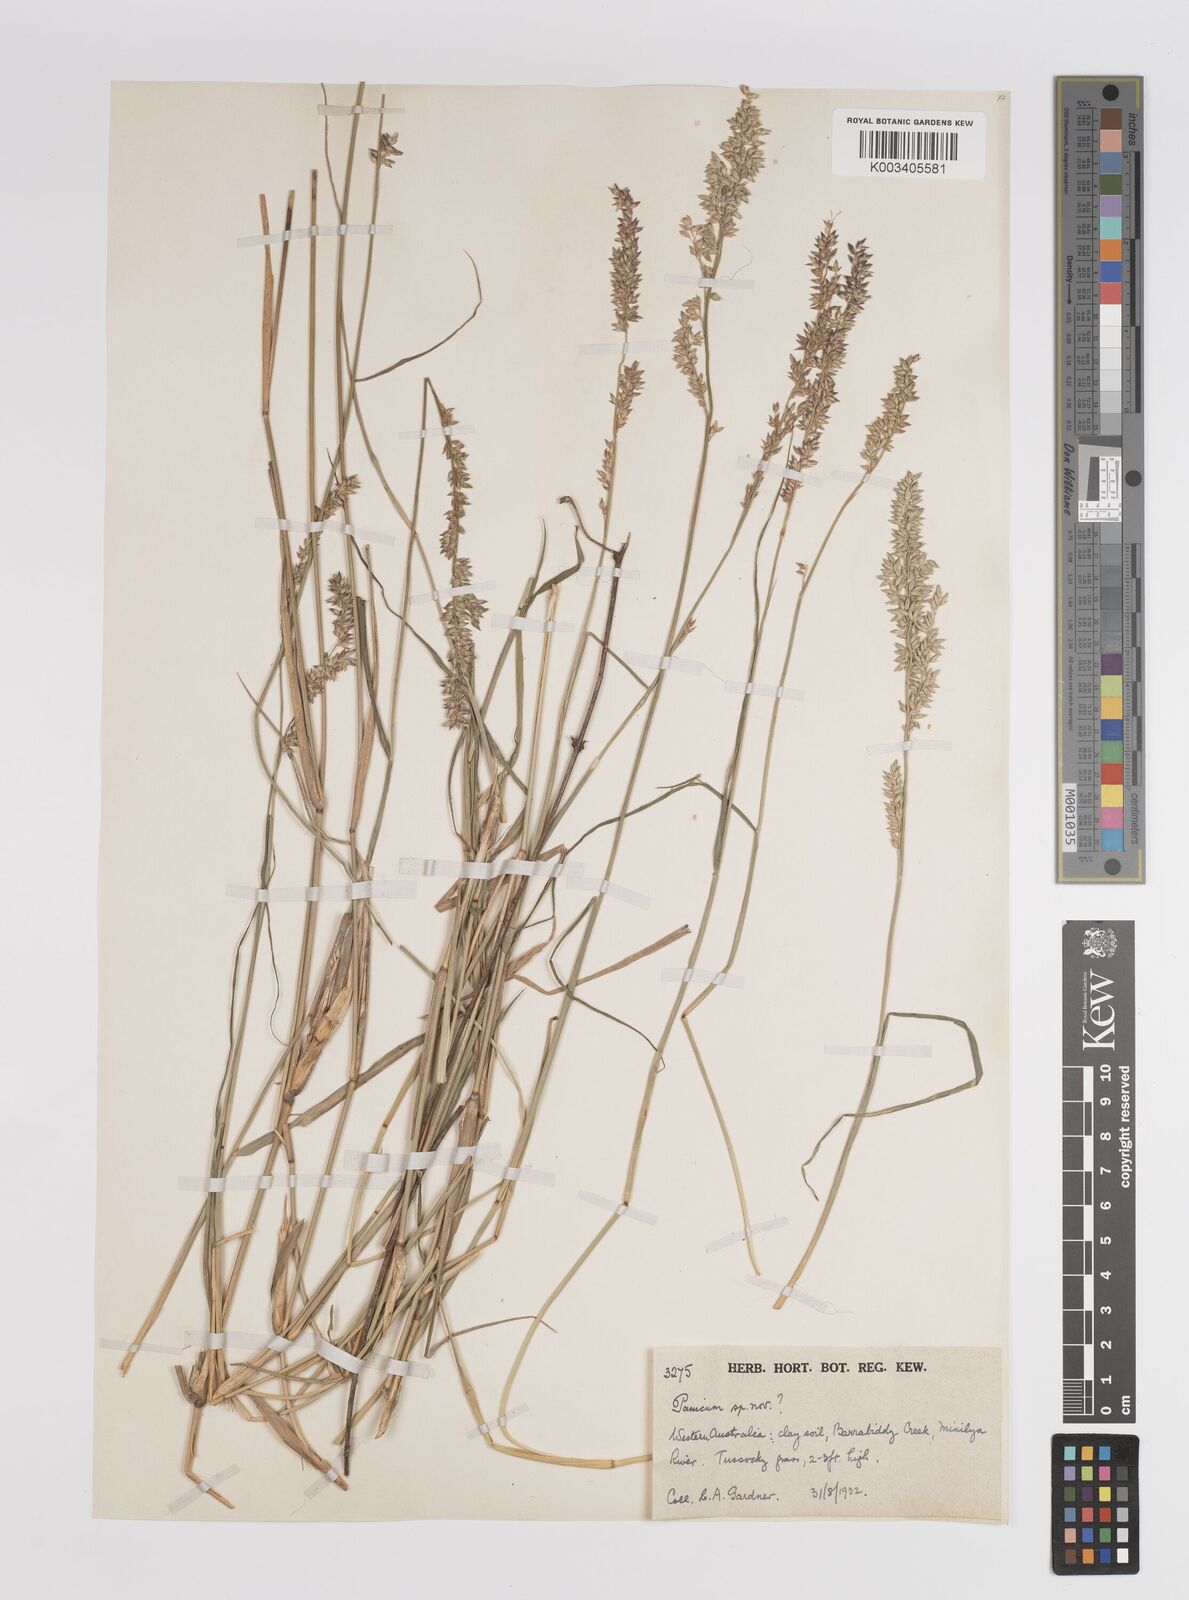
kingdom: Plantae
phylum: Tracheophyta
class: Liliopsida
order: Poales
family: Poaceae
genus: Panicum
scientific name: Panicum
